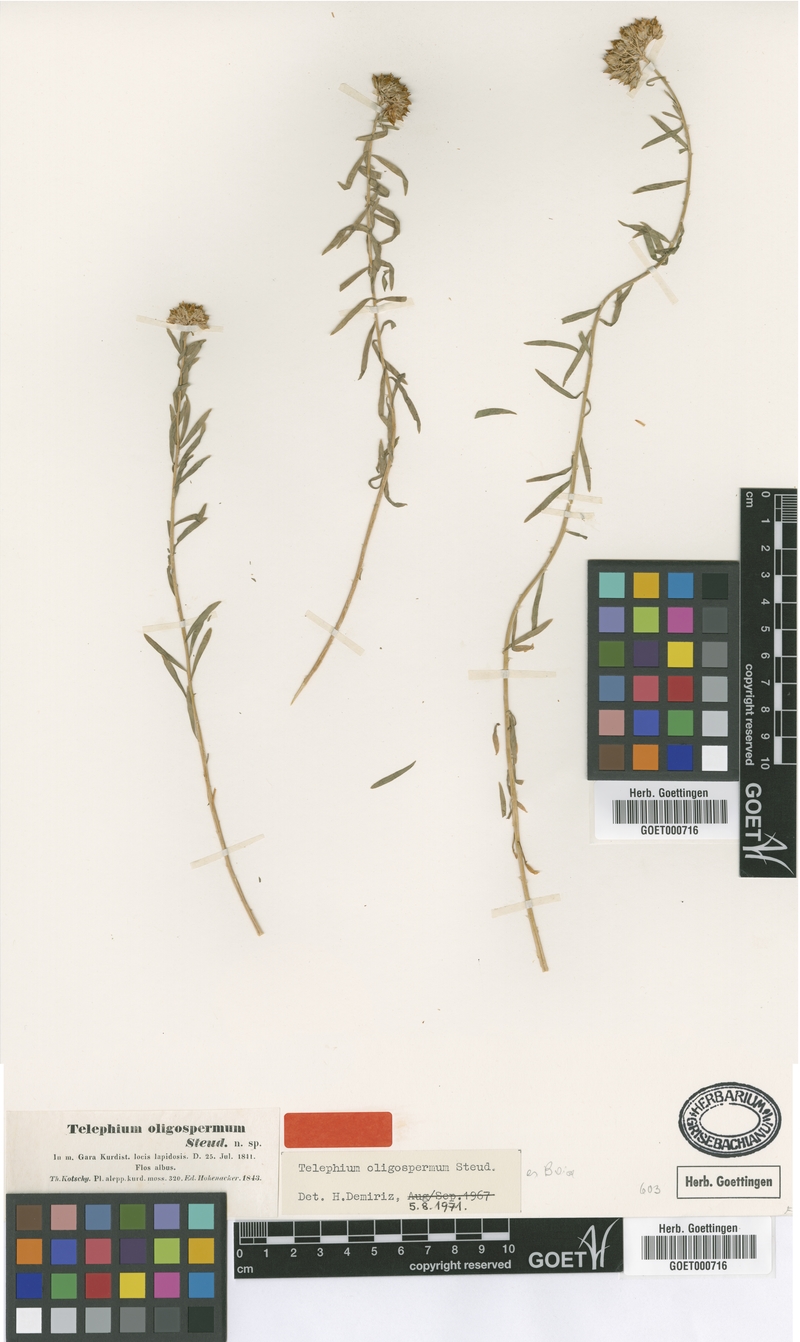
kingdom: Plantae
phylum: Tracheophyta
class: Magnoliopsida
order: Caryophyllales
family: Caryophyllaceae
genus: Telephium
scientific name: Telephium oligospermum
